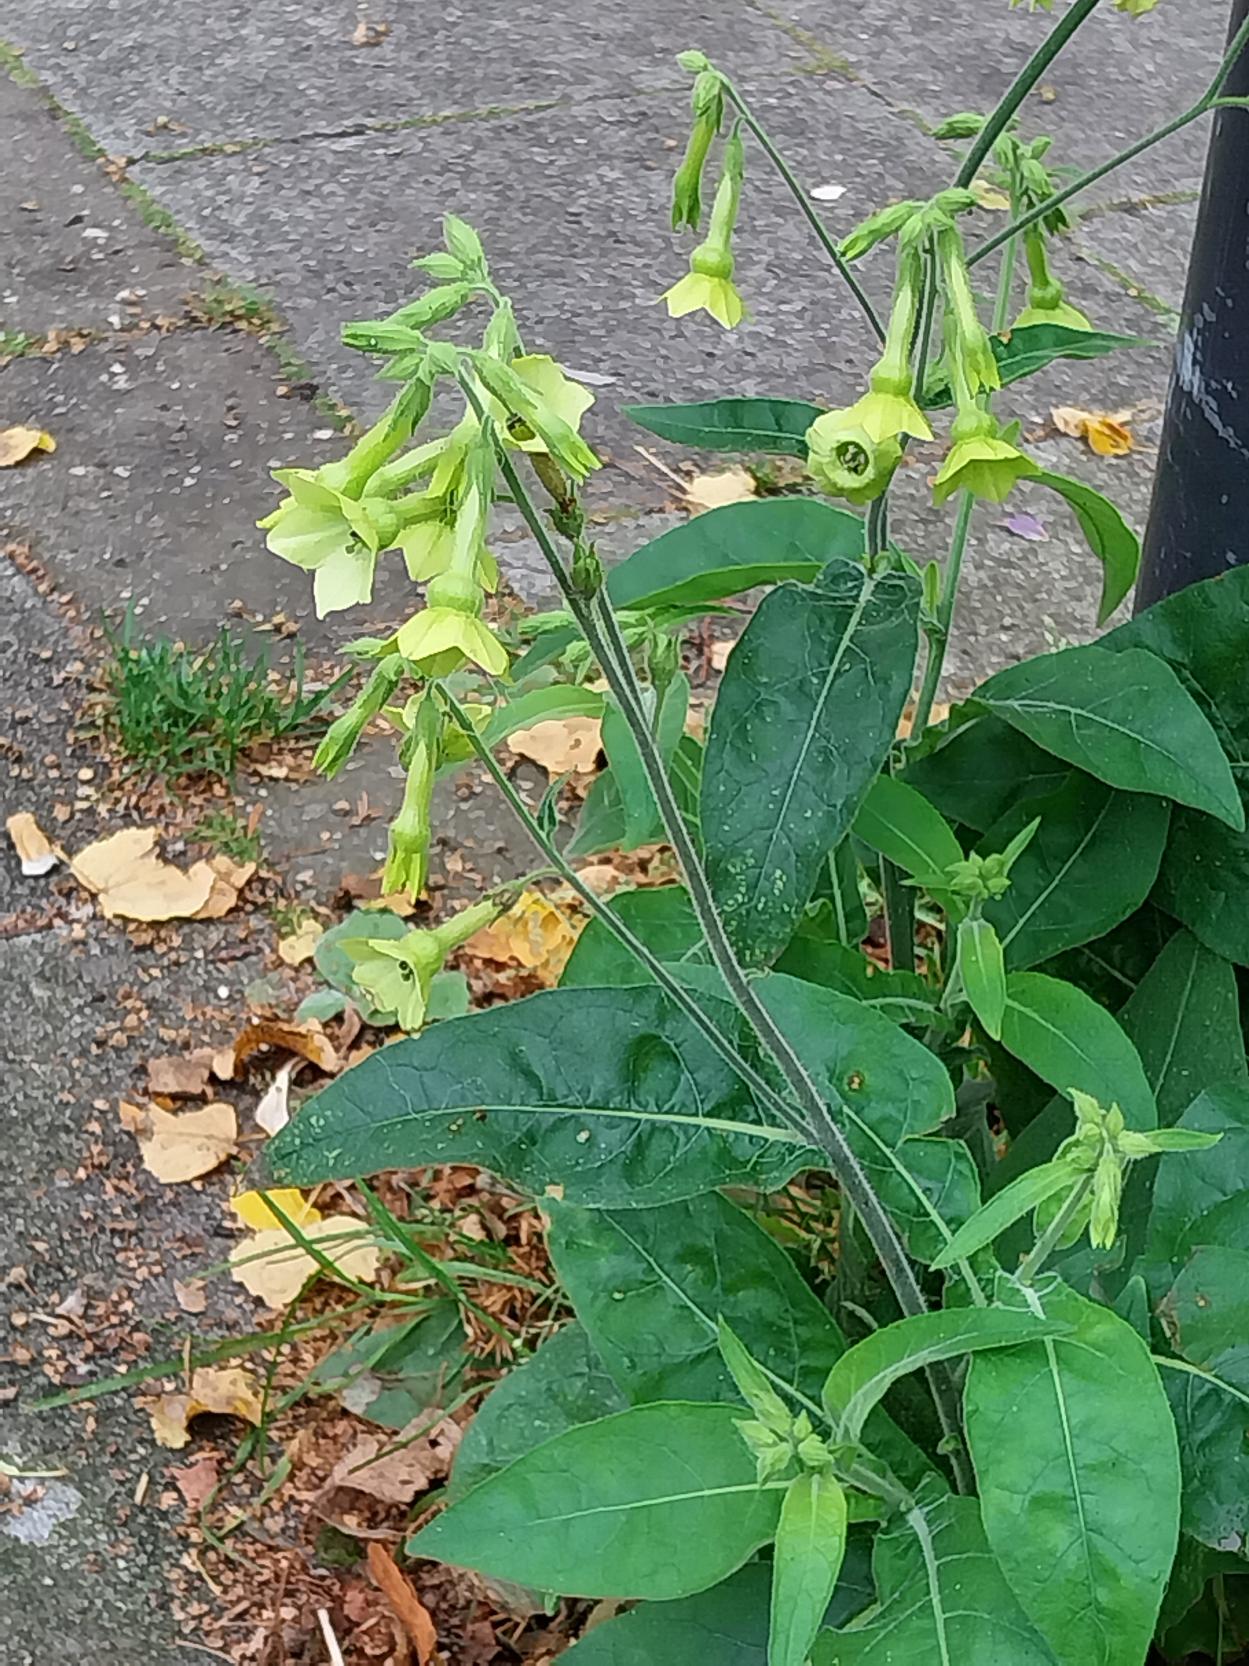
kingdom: Plantae
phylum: Tracheophyta
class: Magnoliopsida
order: Solanales
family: Solanaceae
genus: Nicotiana
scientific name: Nicotiana langsdorffii
